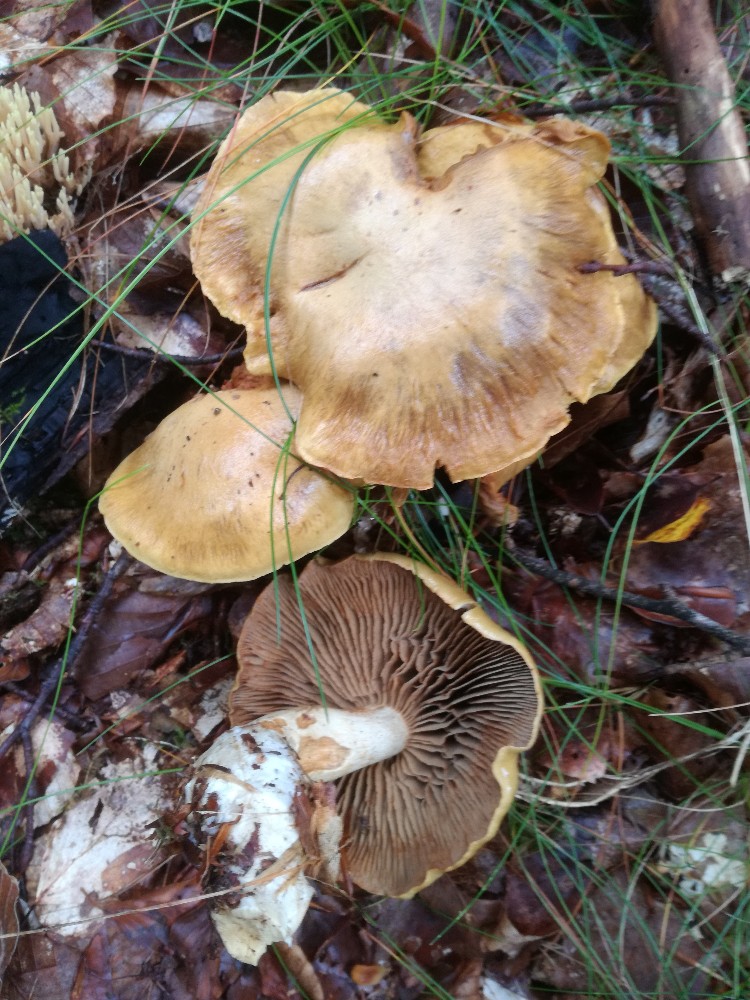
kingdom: Fungi
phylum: Basidiomycota
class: Agaricomycetes
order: Agaricales
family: Cortinariaceae
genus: Cortinarius
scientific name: Cortinarius subtortus
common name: olivengul slørhat
